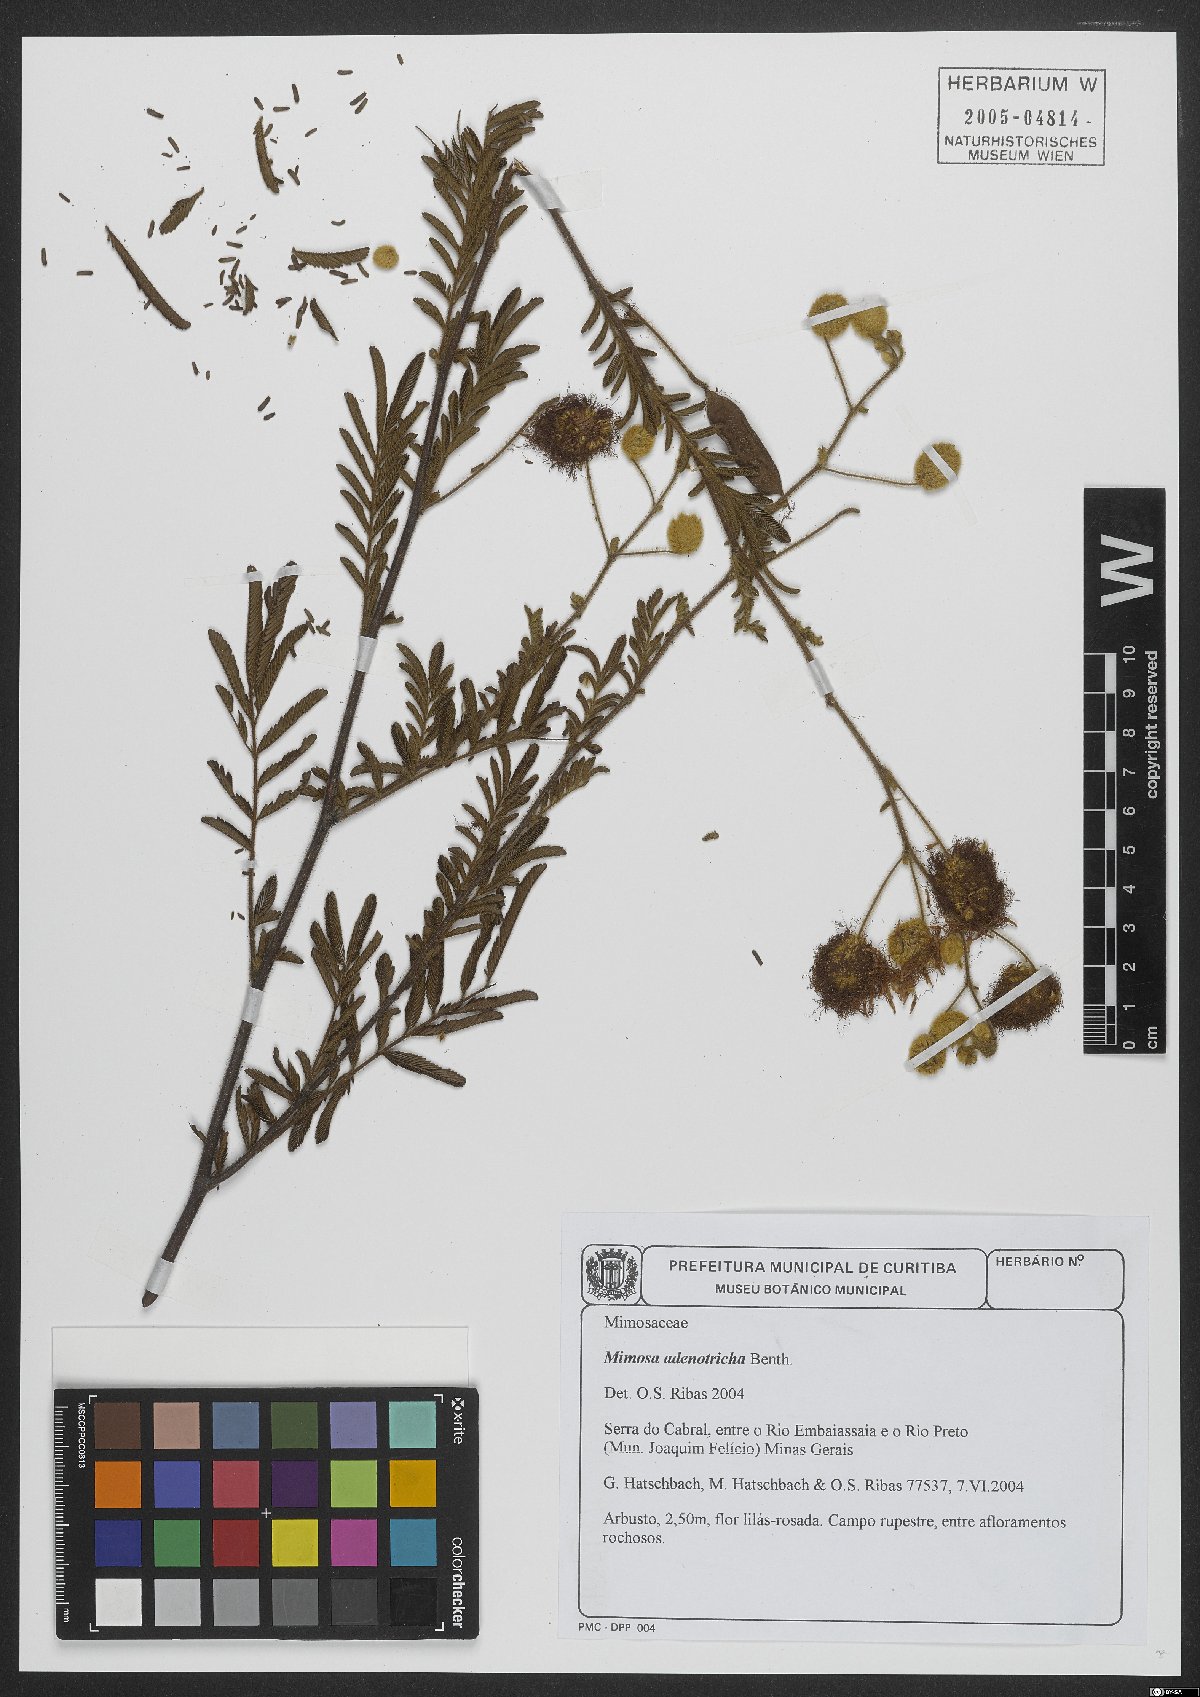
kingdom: Plantae
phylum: Tracheophyta
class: Magnoliopsida
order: Fabales
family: Fabaceae
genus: Mimosa
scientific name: Mimosa adenotricha
